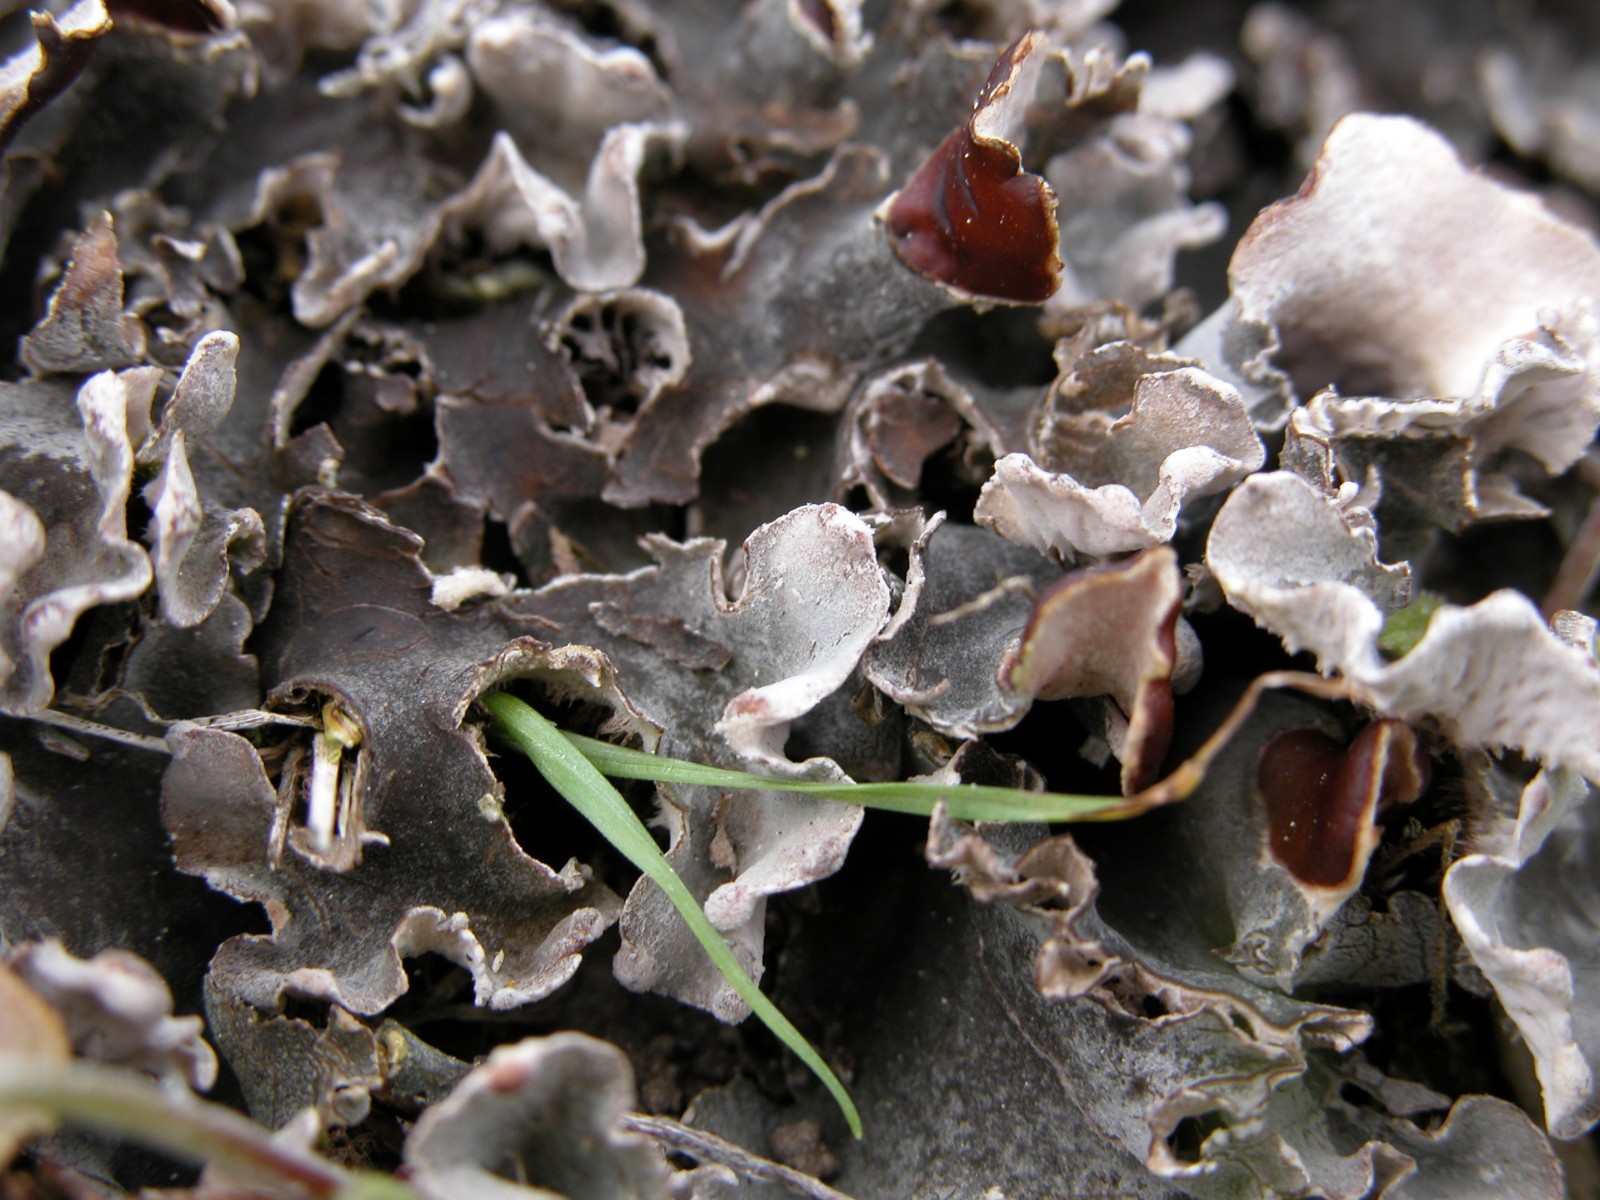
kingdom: Fungi
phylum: Ascomycota
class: Lecanoromycetes
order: Peltigerales
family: Peltigeraceae
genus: Peltigera
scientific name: Peltigera ponojensis
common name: østlig skjoldlav
